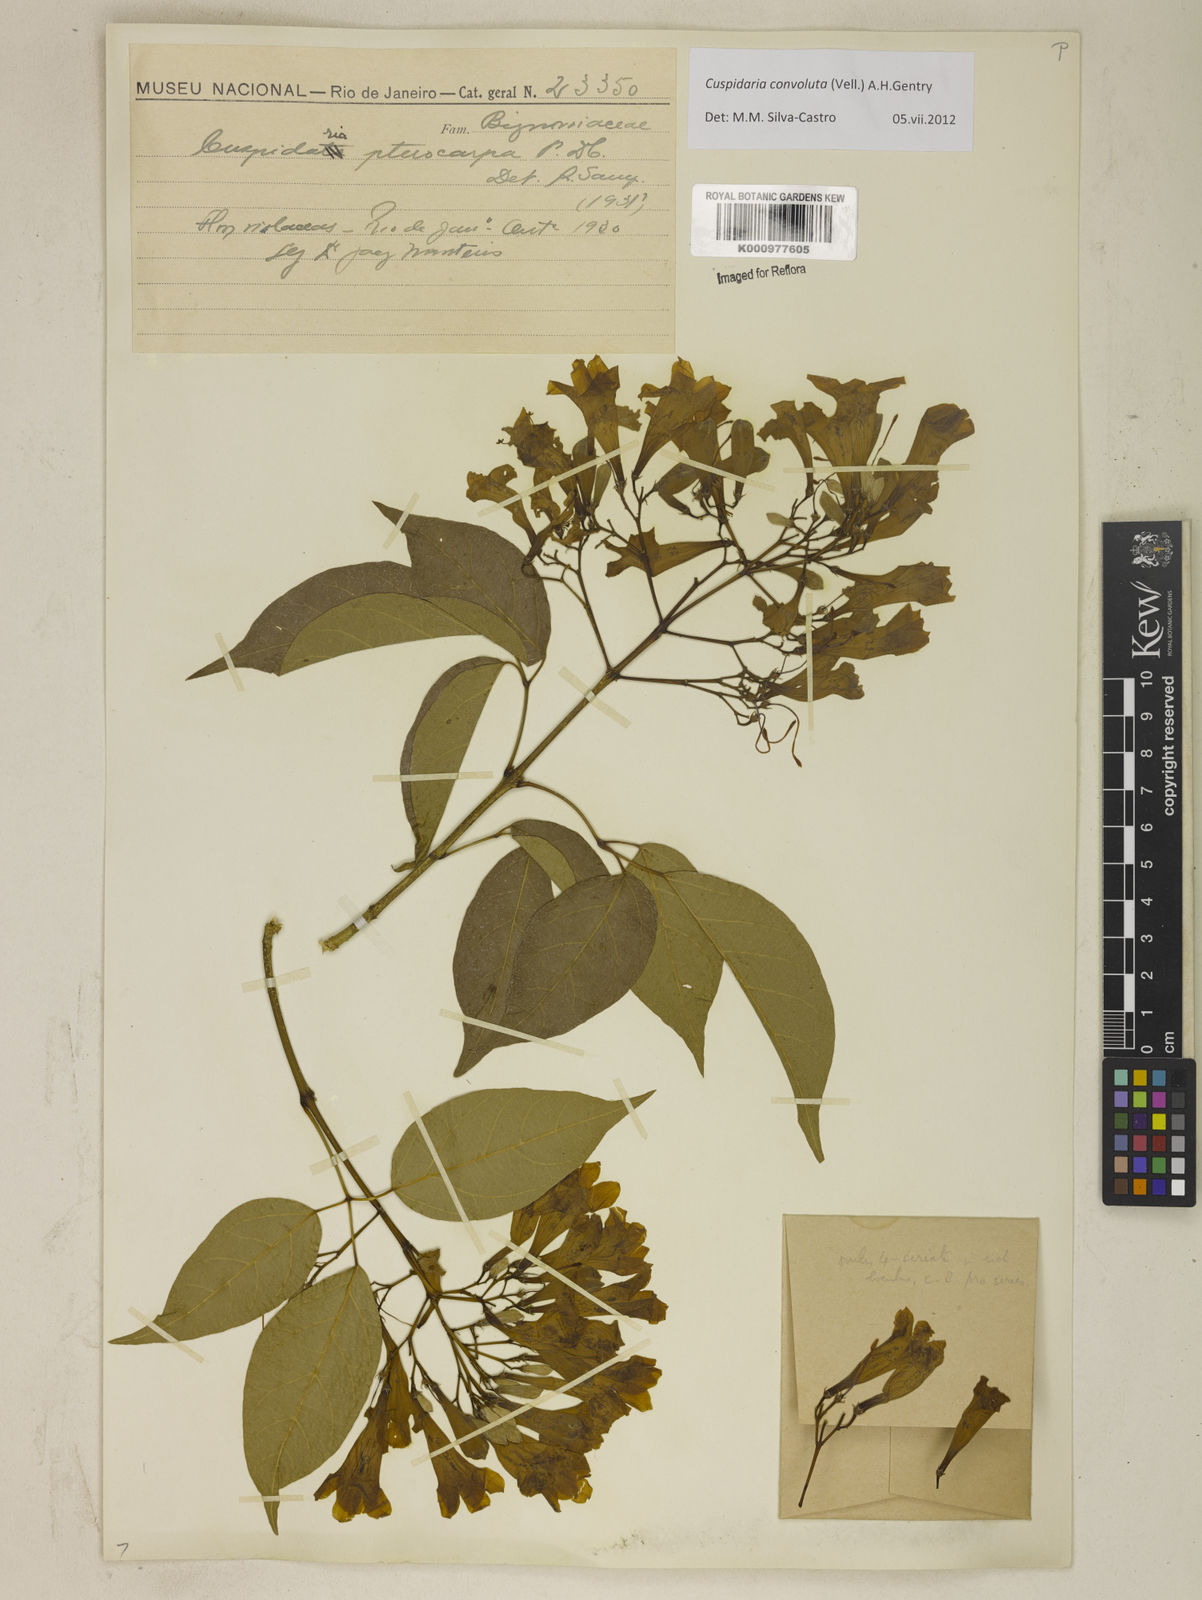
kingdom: Plantae
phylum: Tracheophyta
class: Magnoliopsida
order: Lamiales
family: Bignoniaceae
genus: Cuspidaria
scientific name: Cuspidaria convoluta
